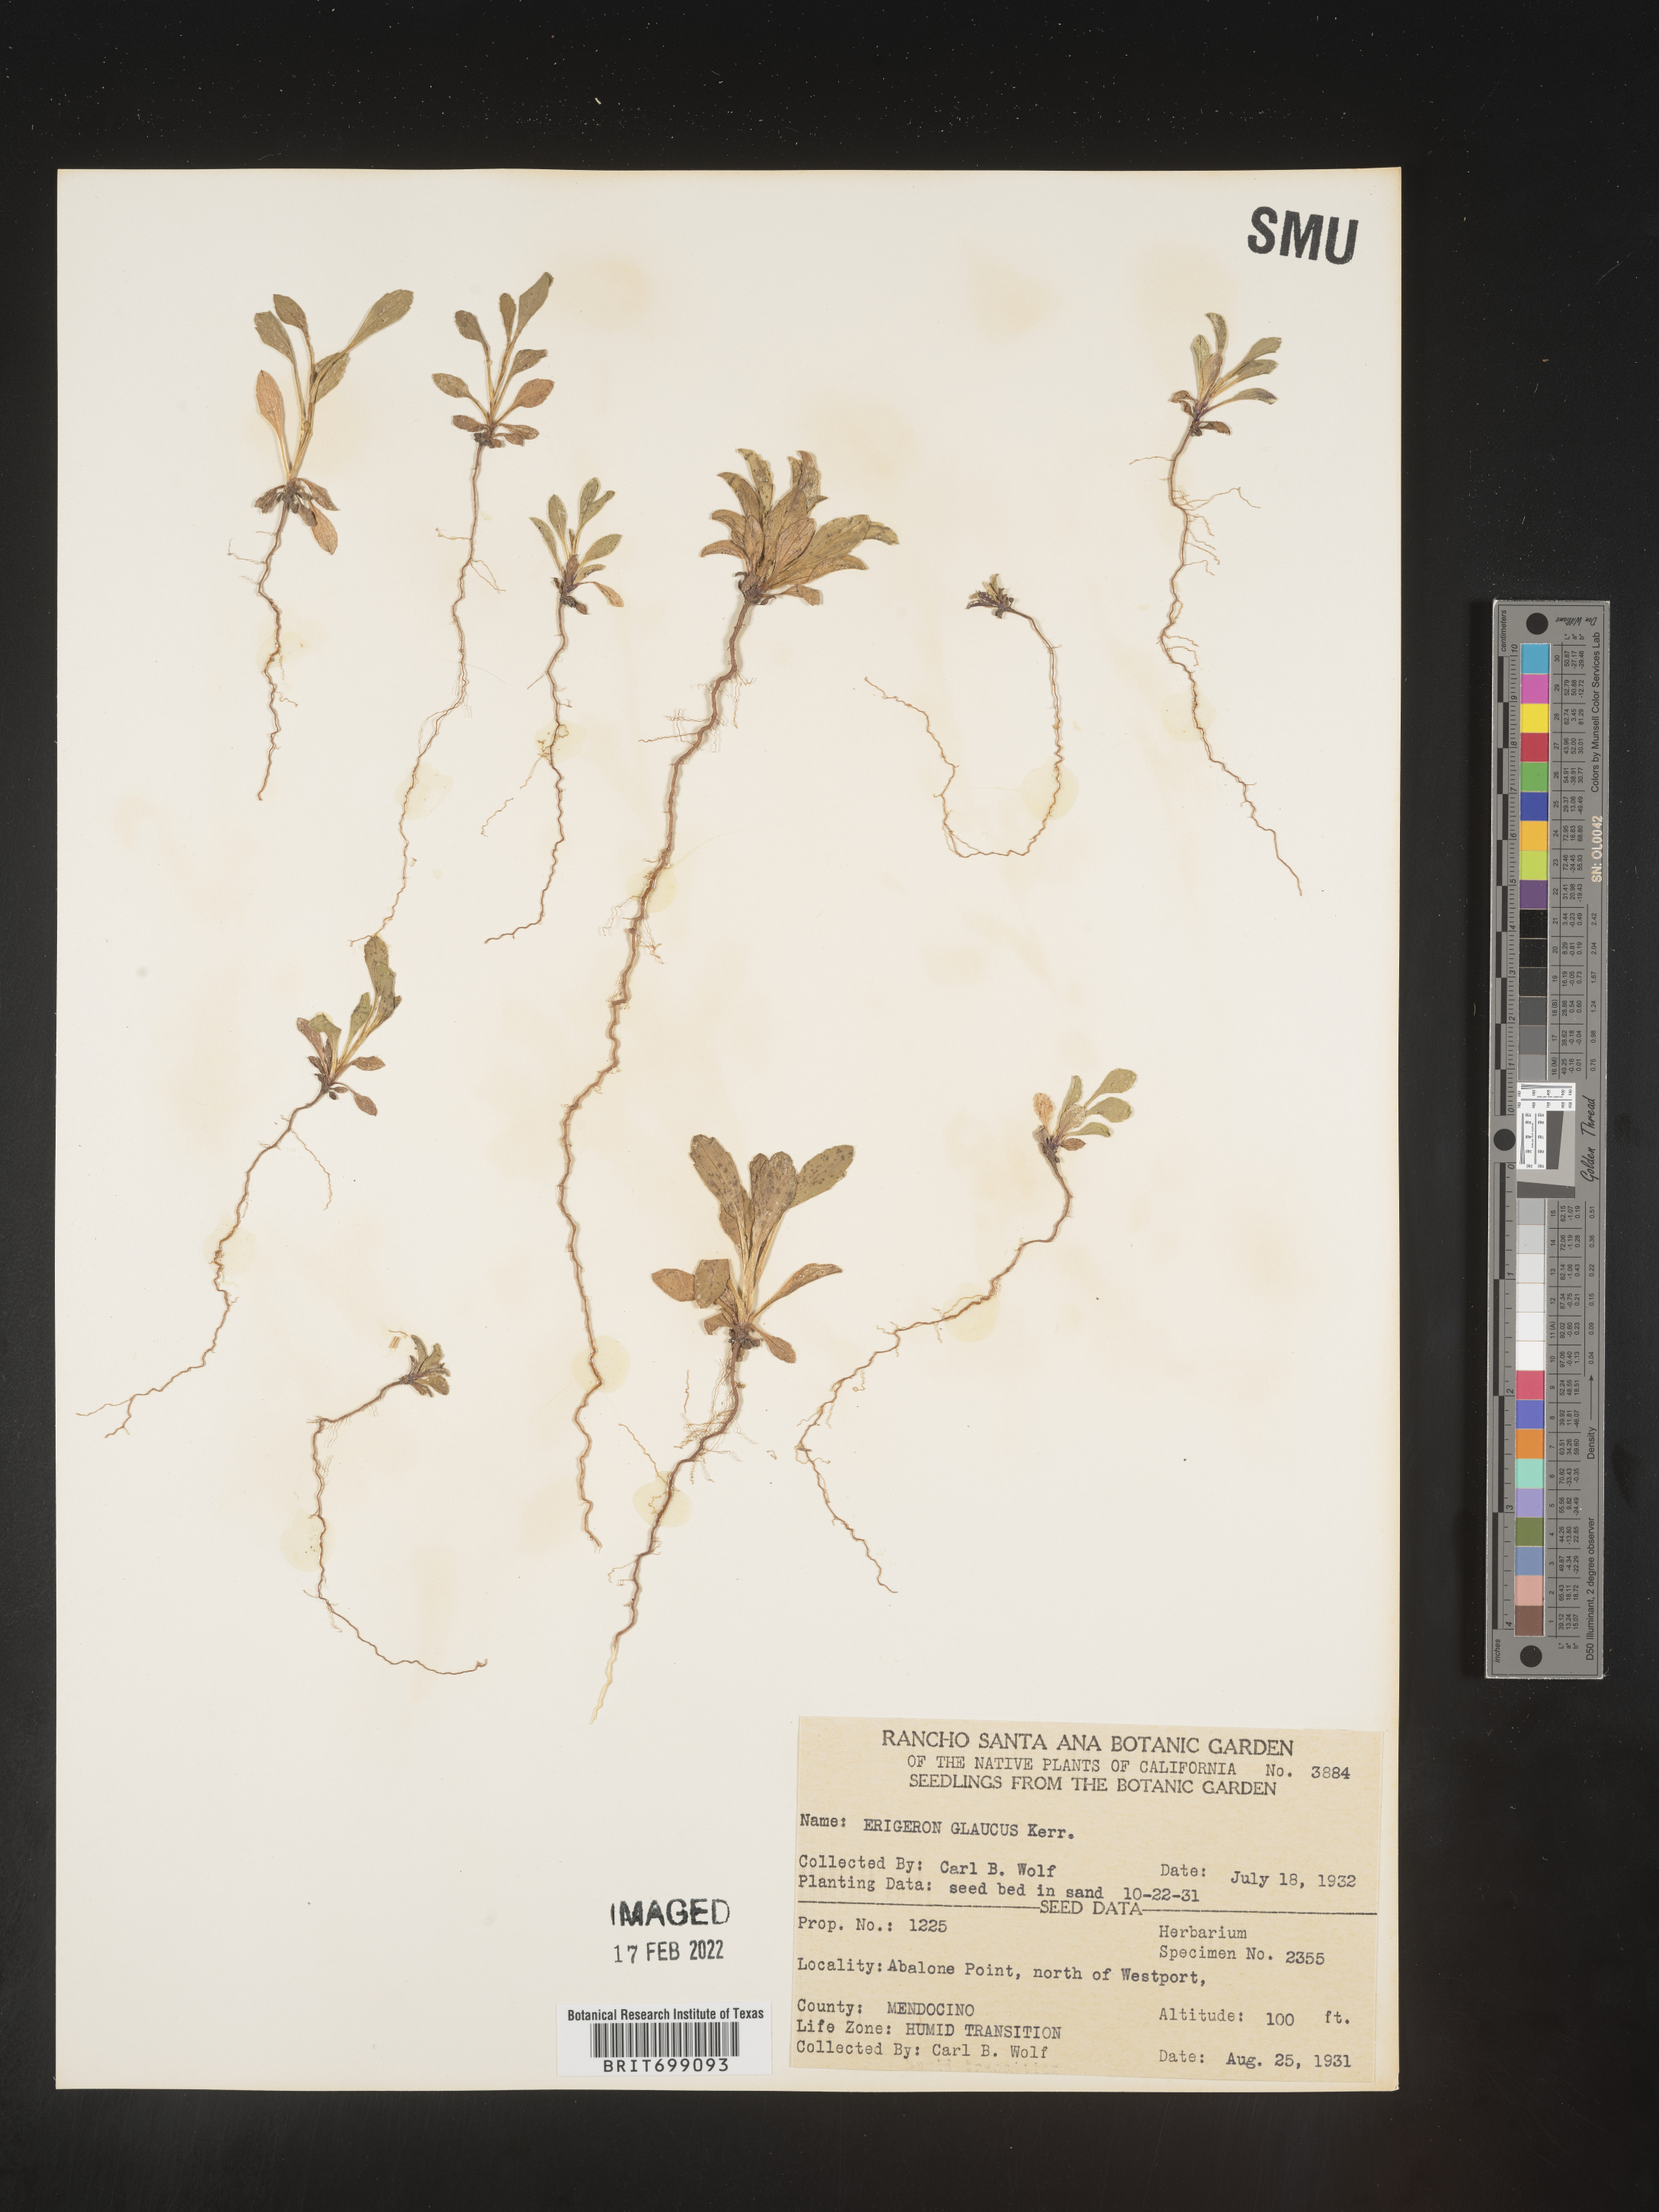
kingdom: Plantae
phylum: Tracheophyta
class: Magnoliopsida
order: Asterales
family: Asteraceae
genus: Erigeron
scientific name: Erigeron glaucus
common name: Seaside daisy
